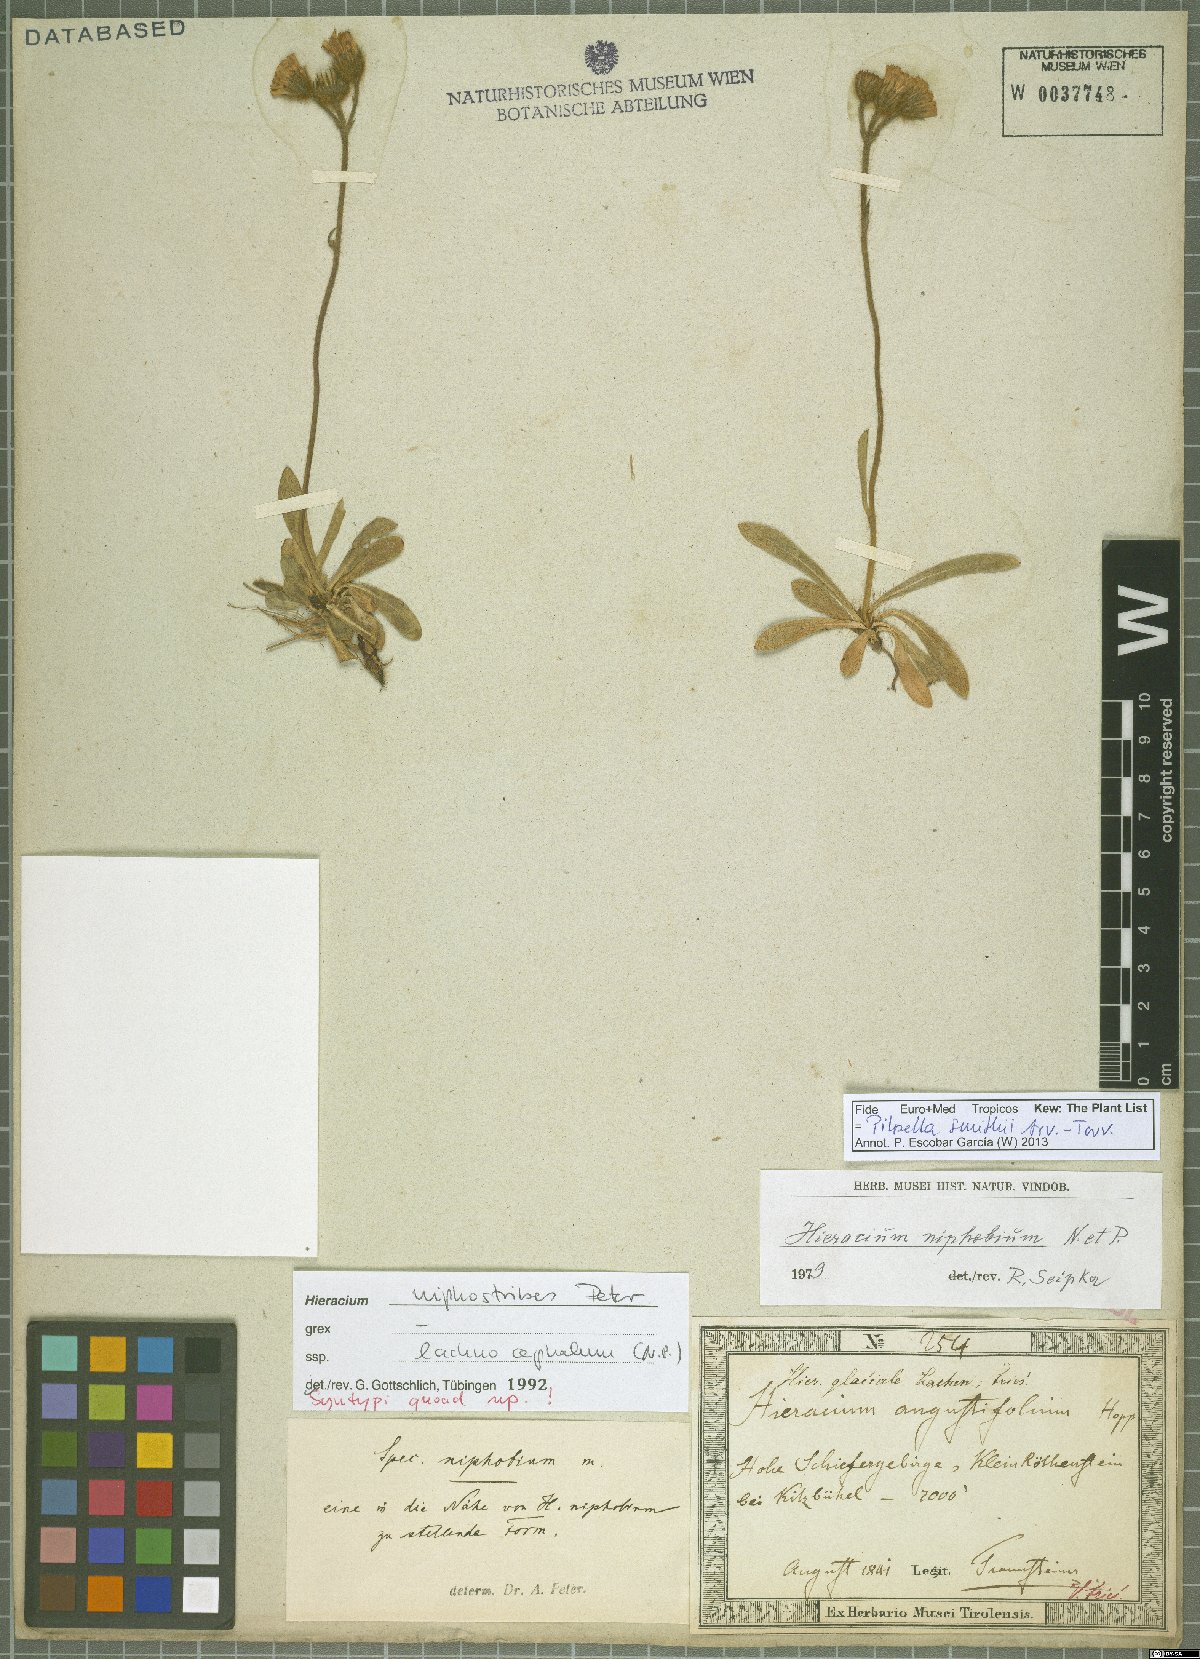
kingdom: Plantae
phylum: Tracheophyta
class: Magnoliopsida
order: Asterales
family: Asteraceae
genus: Pilosella
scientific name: Pilosella corymbuloides
